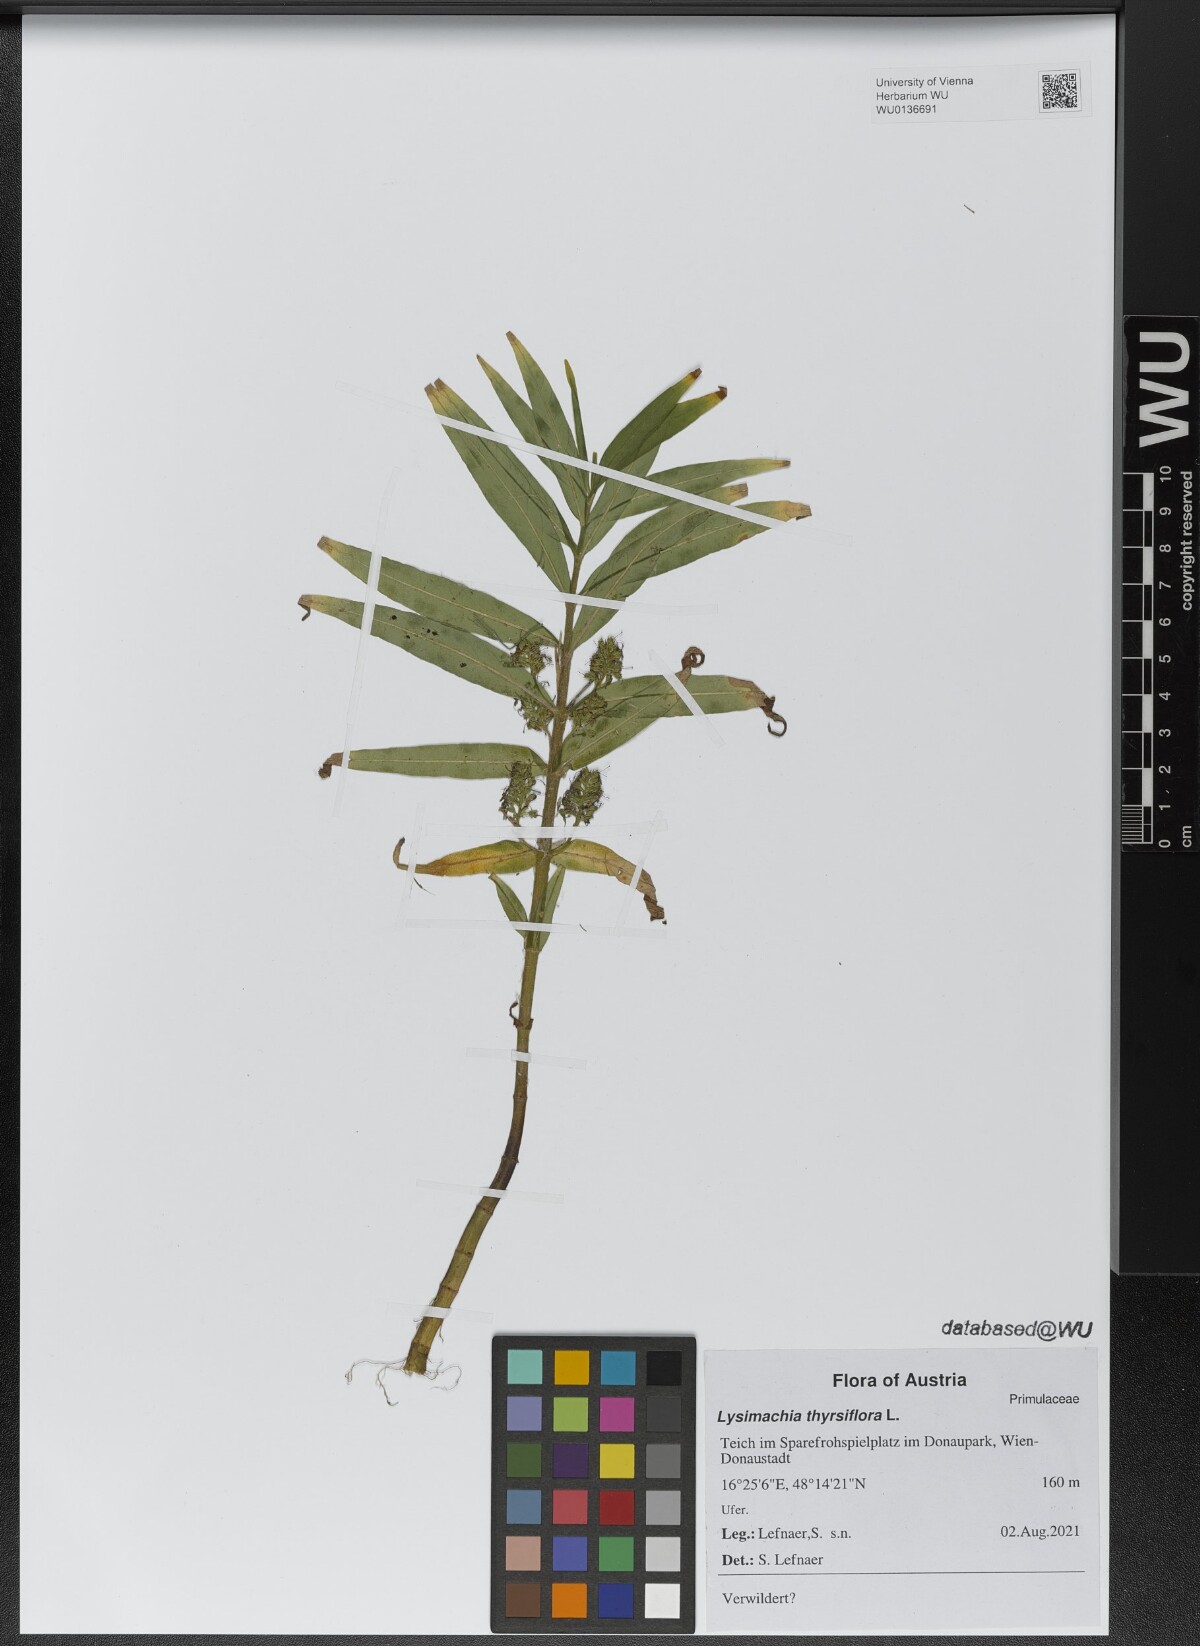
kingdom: Plantae
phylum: Tracheophyta
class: Magnoliopsida
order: Ericales
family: Primulaceae
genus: Lysimachia
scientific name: Lysimachia thyrsiflora
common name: Tufted loosestrife
